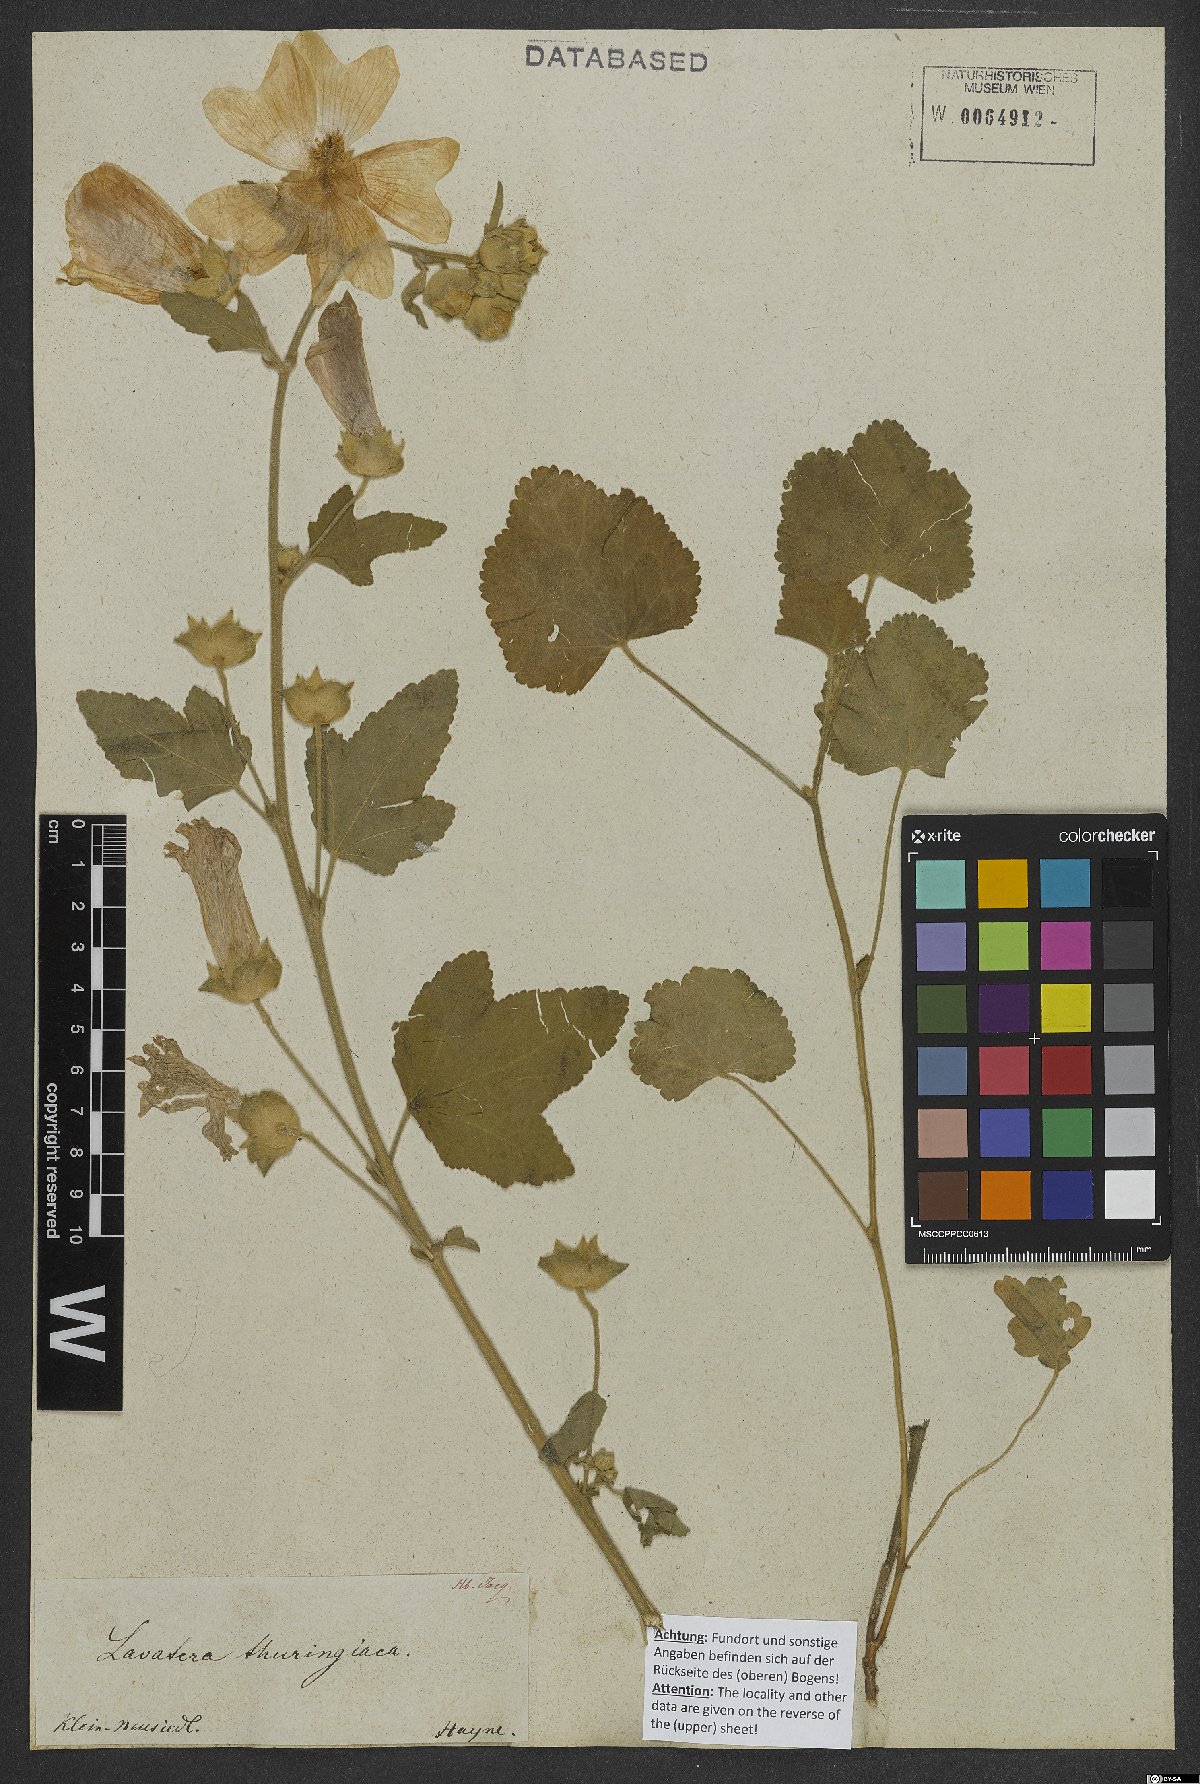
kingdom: Plantae
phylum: Tracheophyta
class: Magnoliopsida
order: Malvales
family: Malvaceae
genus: Malva
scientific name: Malva thuringiaca
